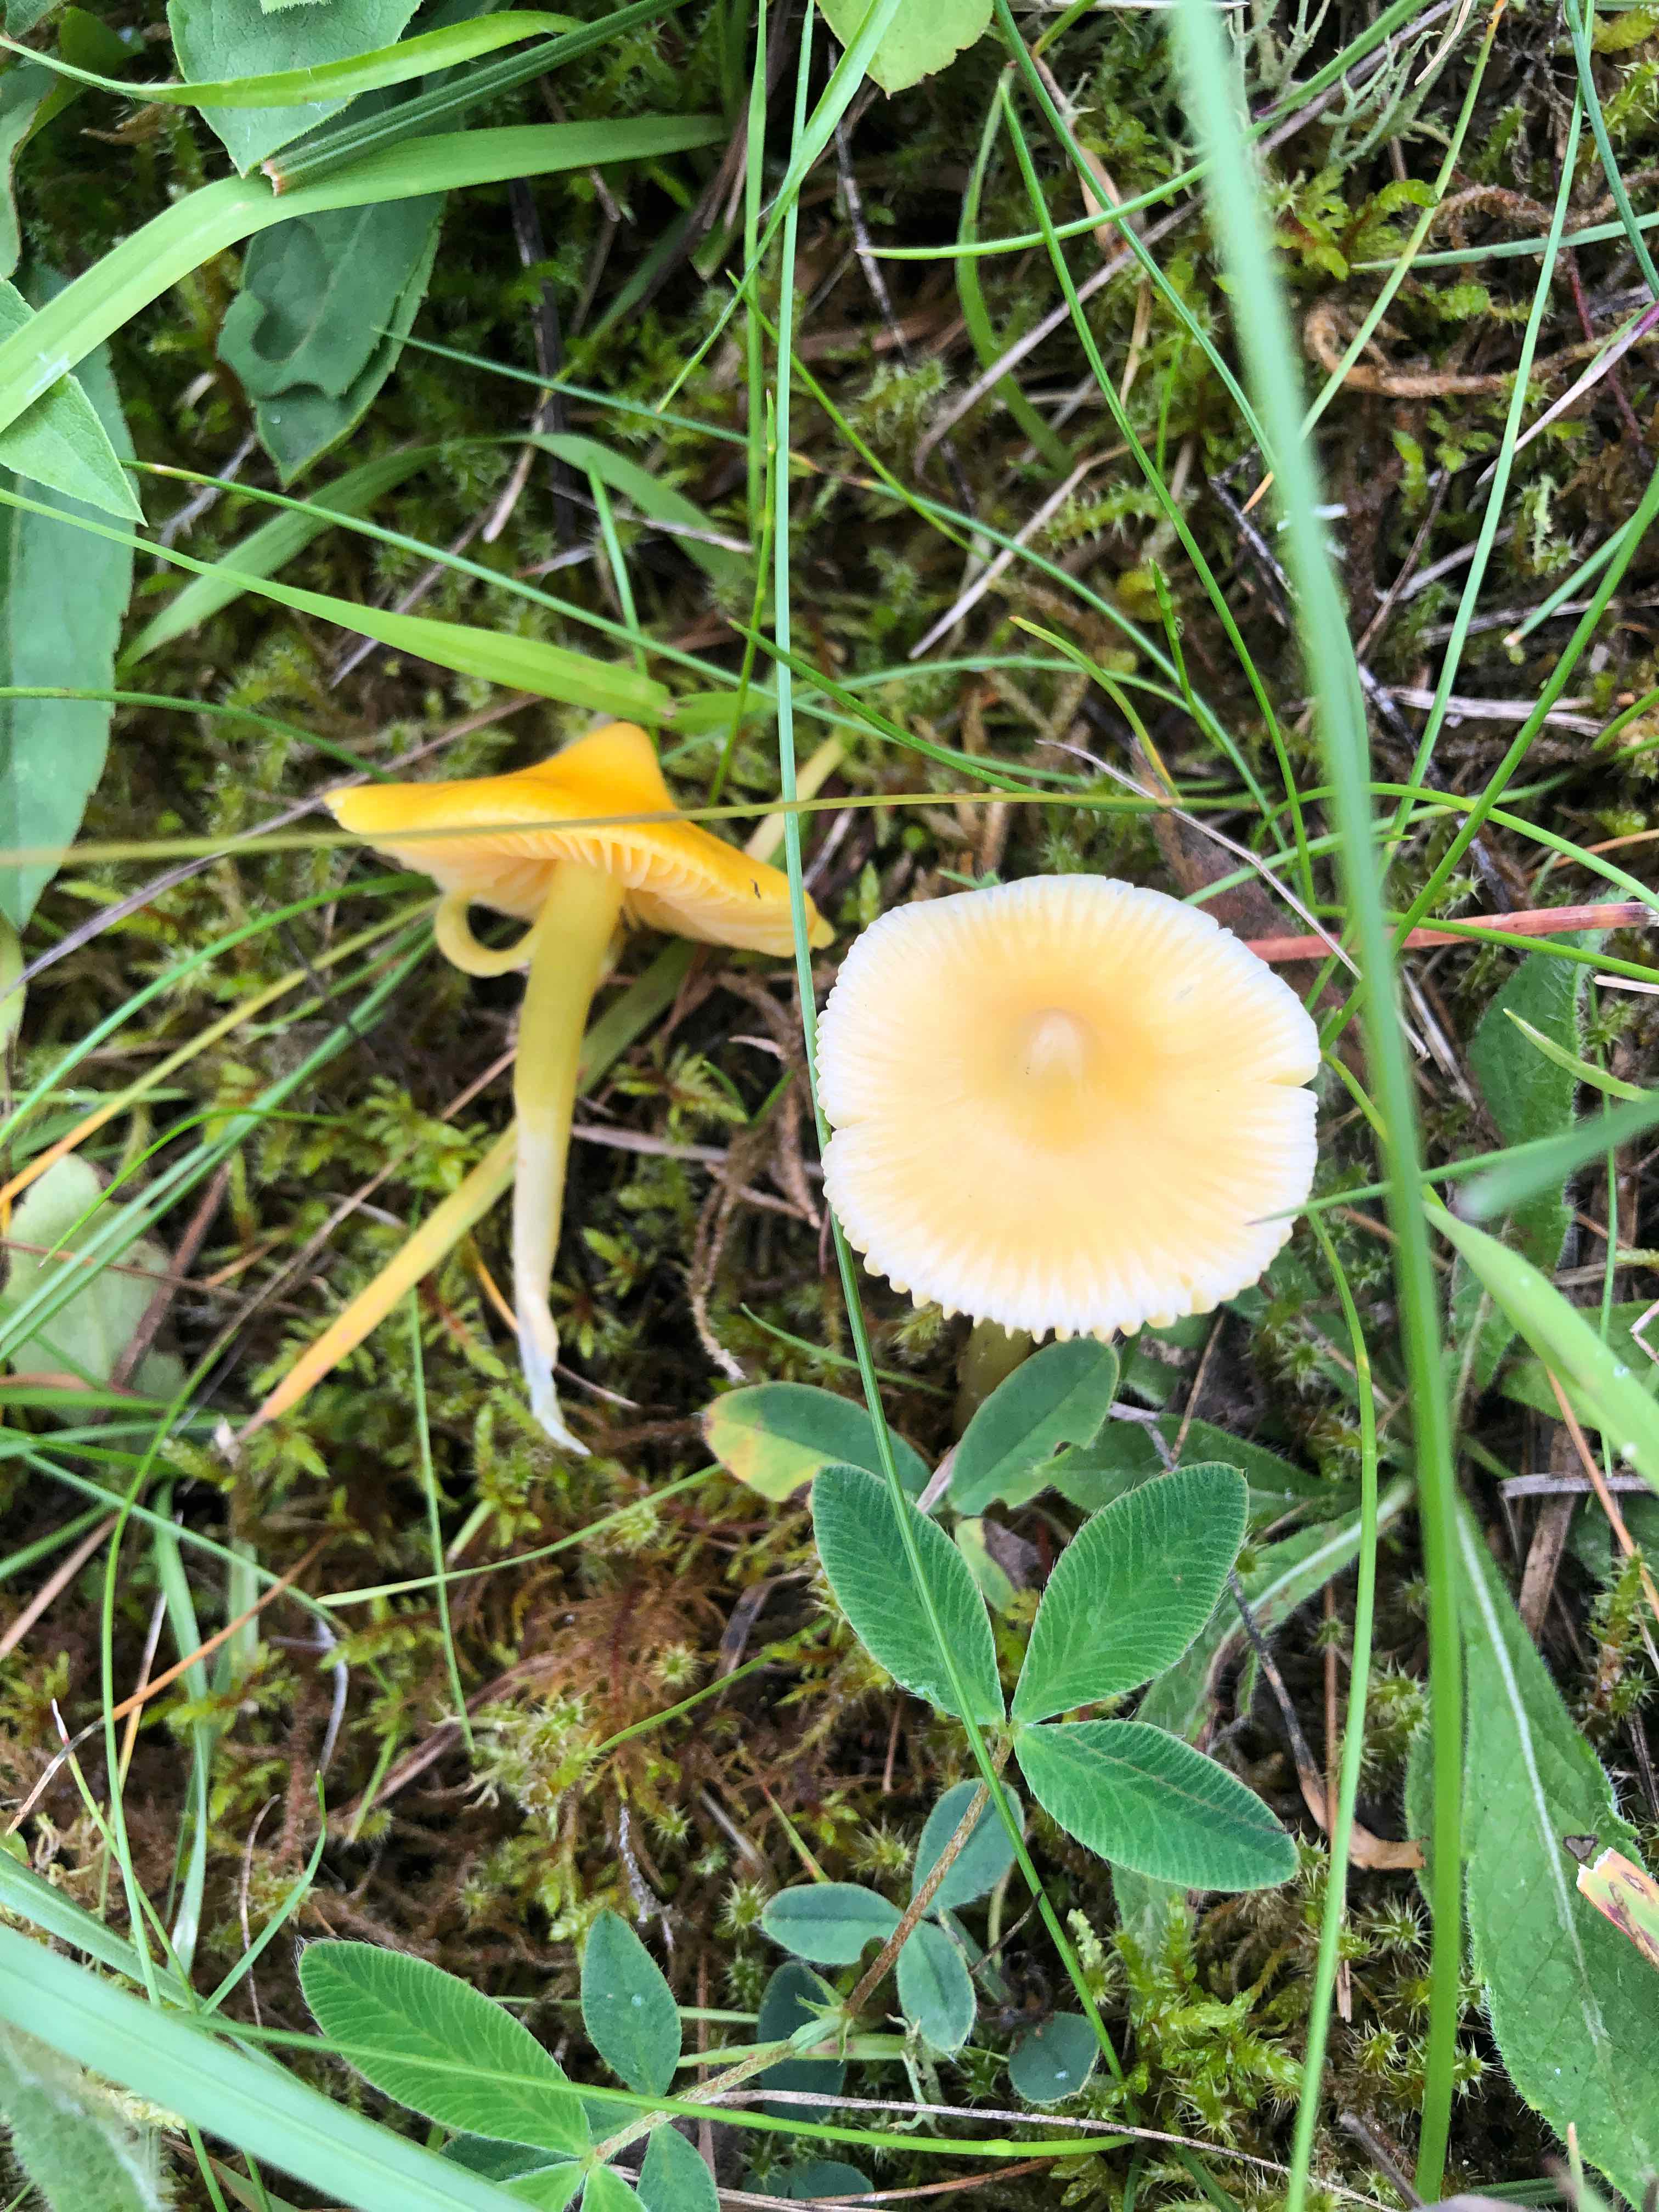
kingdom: Fungi
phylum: Basidiomycota
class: Agaricomycetes
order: Agaricales
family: Hygrophoraceae
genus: Hygrocybe
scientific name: Hygrocybe
